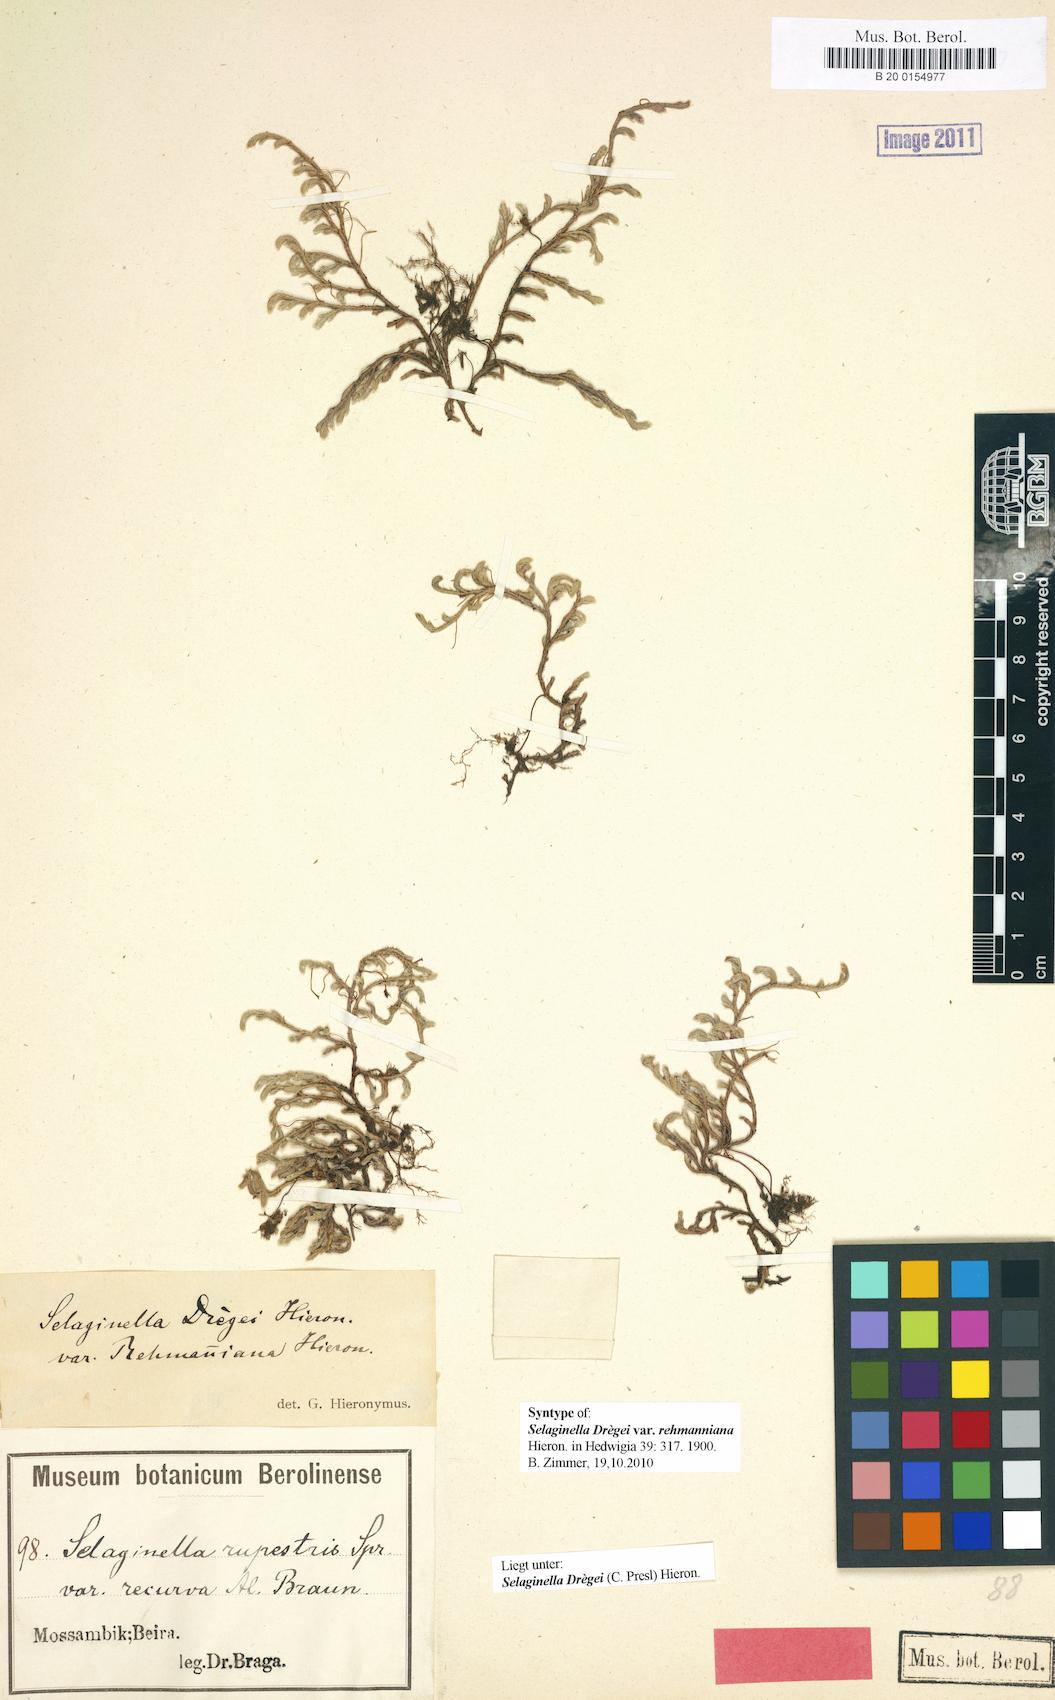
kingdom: Plantae
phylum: Tracheophyta
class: Lycopodiopsida
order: Selaginellales
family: Selaginellaceae
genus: Selaginella
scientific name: Selaginella dregei
